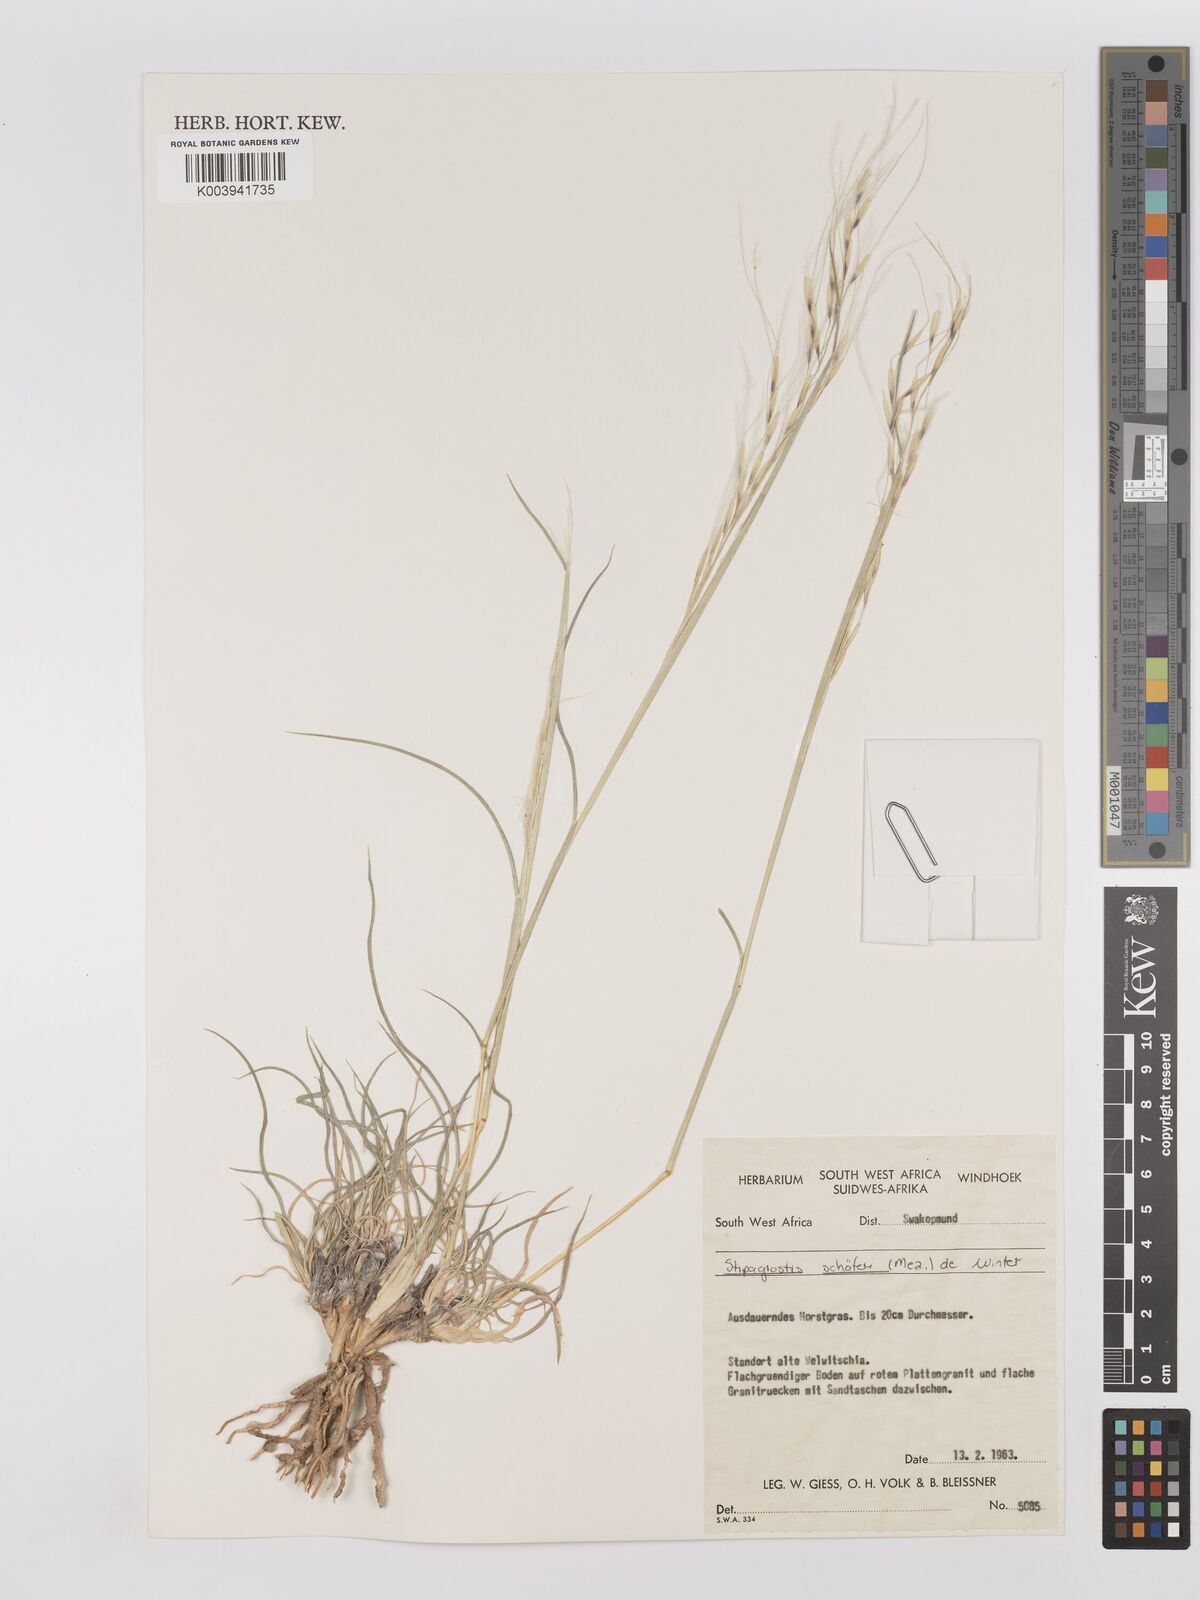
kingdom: Plantae
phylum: Tracheophyta
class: Liliopsida
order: Poales
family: Poaceae
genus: Stipagrostis
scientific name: Stipagrostis schaeferi
